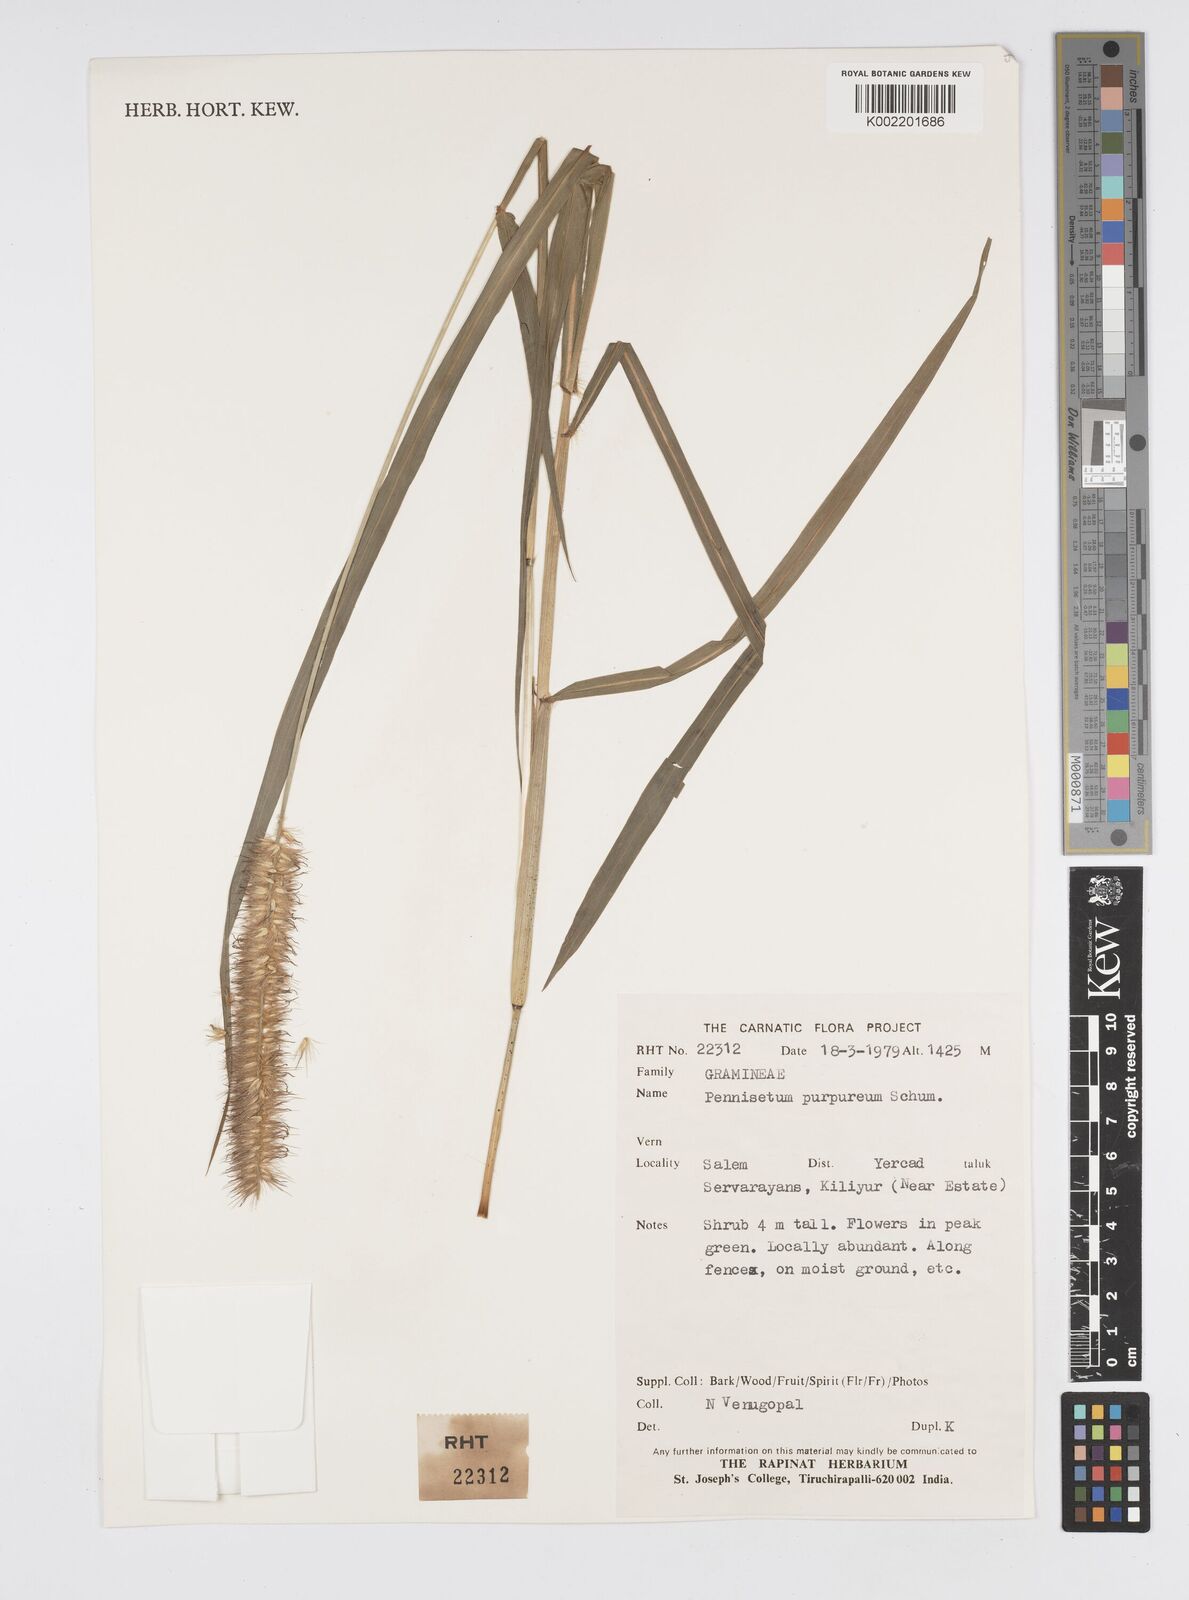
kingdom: Plantae
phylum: Tracheophyta
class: Liliopsida
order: Poales
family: Poaceae
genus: Cenchrus
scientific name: Cenchrus purpureus
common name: Elephant grass
